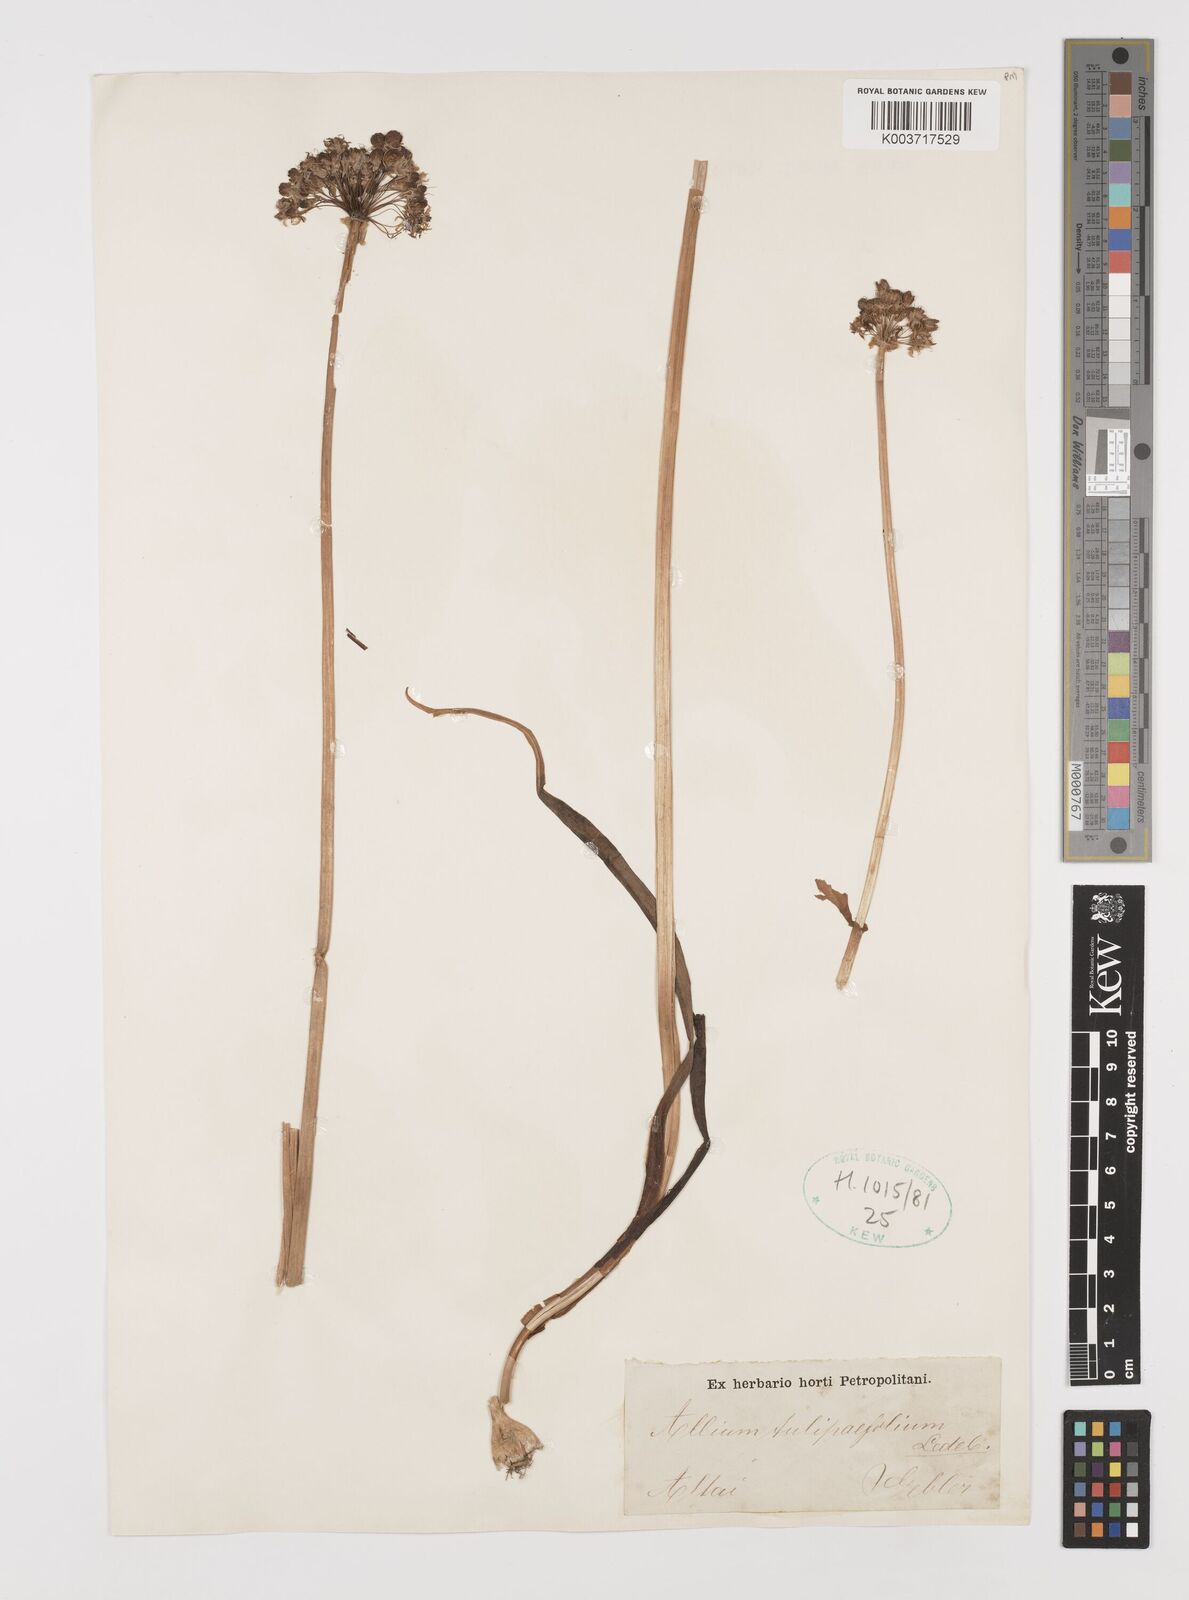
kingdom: Plantae
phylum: Tracheophyta
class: Liliopsida
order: Asparagales
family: Amaryllidaceae
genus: Allium
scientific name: Allium tulipifolium
